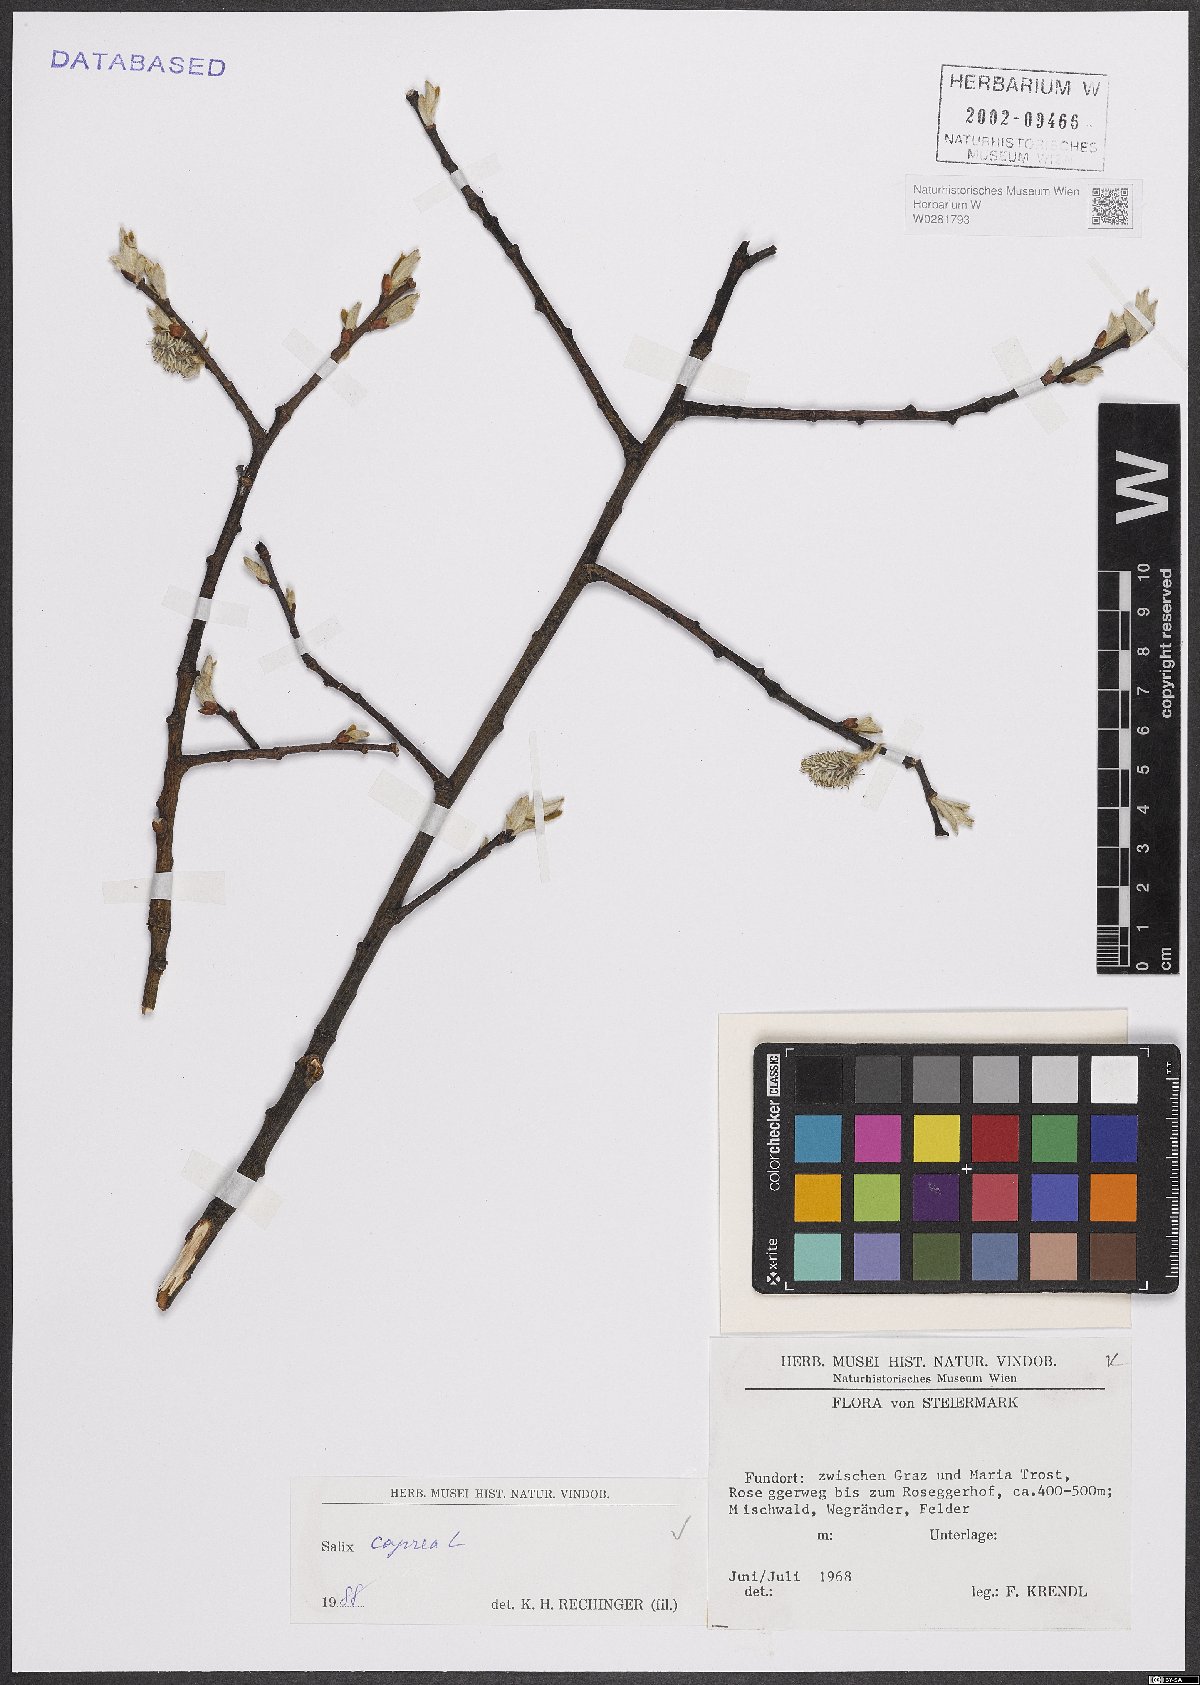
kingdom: Plantae
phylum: Tracheophyta
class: Magnoliopsida
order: Malpighiales
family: Salicaceae
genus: Salix
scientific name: Salix caprea
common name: Goat willow
